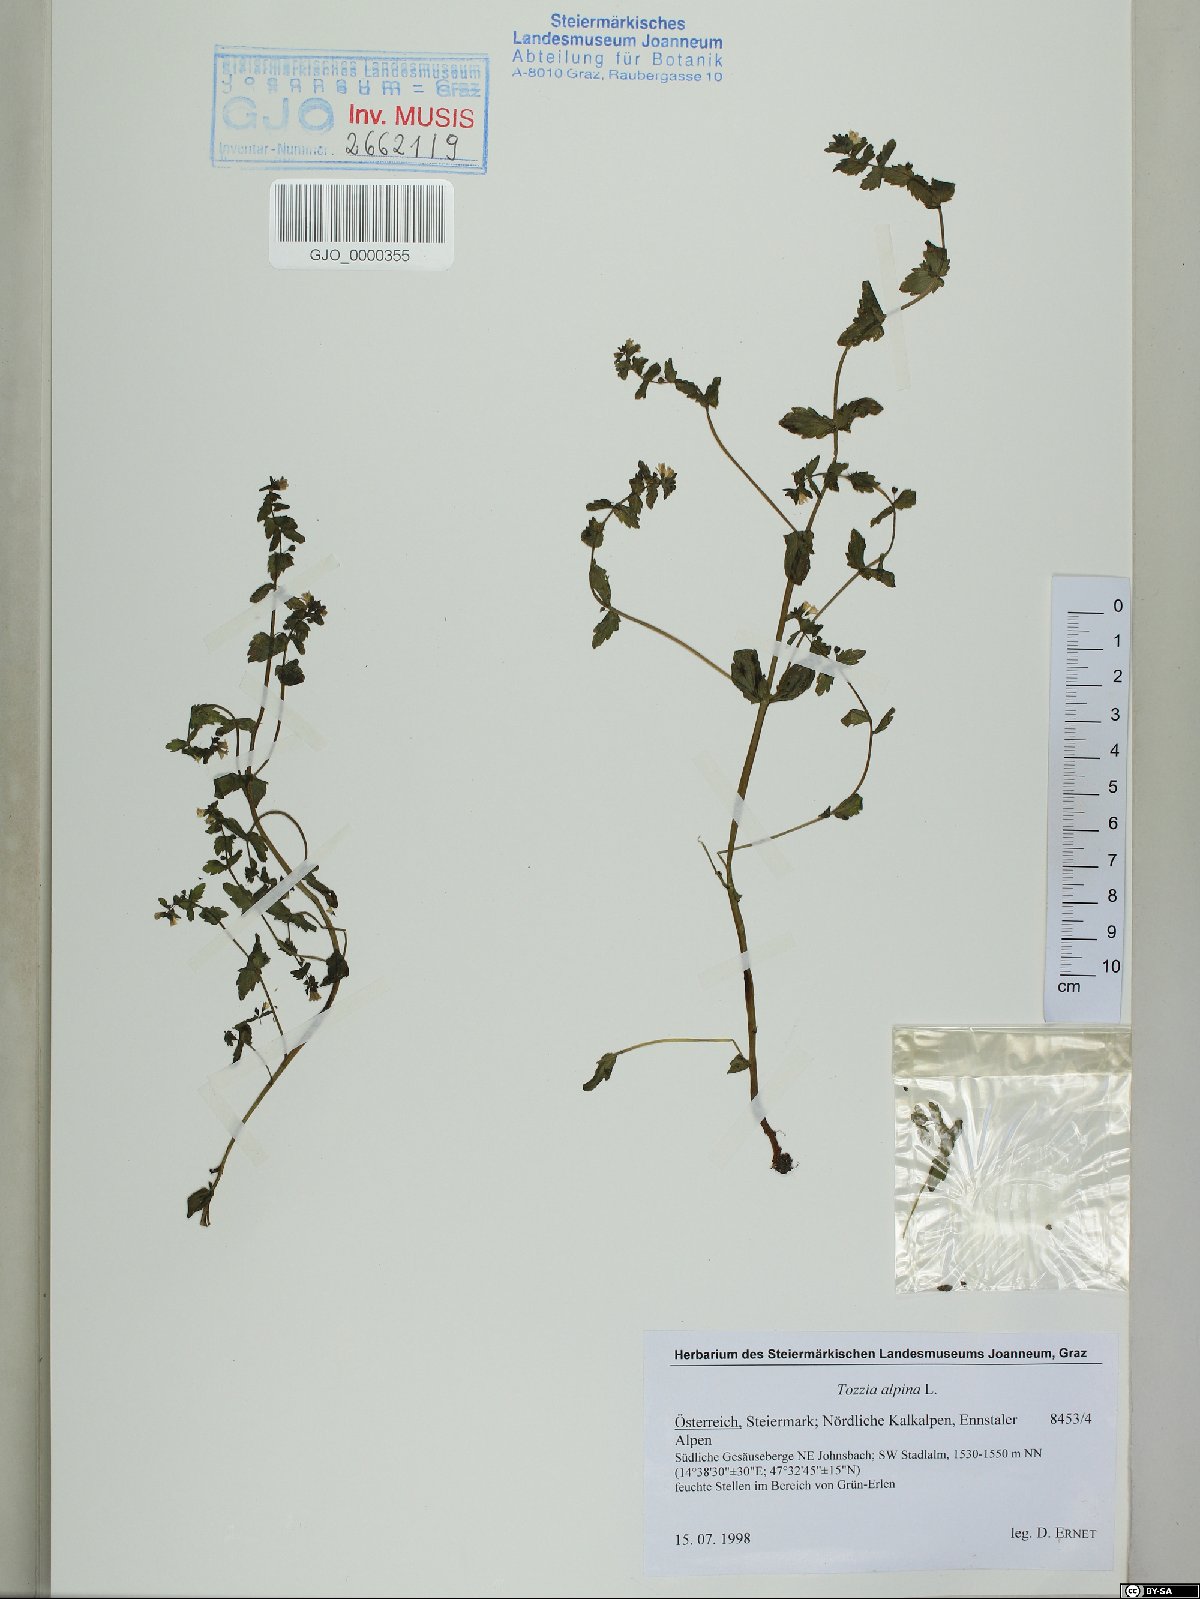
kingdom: Plantae
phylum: Tracheophyta
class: Magnoliopsida
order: Lamiales
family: Orobanchaceae
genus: Tozzia
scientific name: Tozzia alpina
